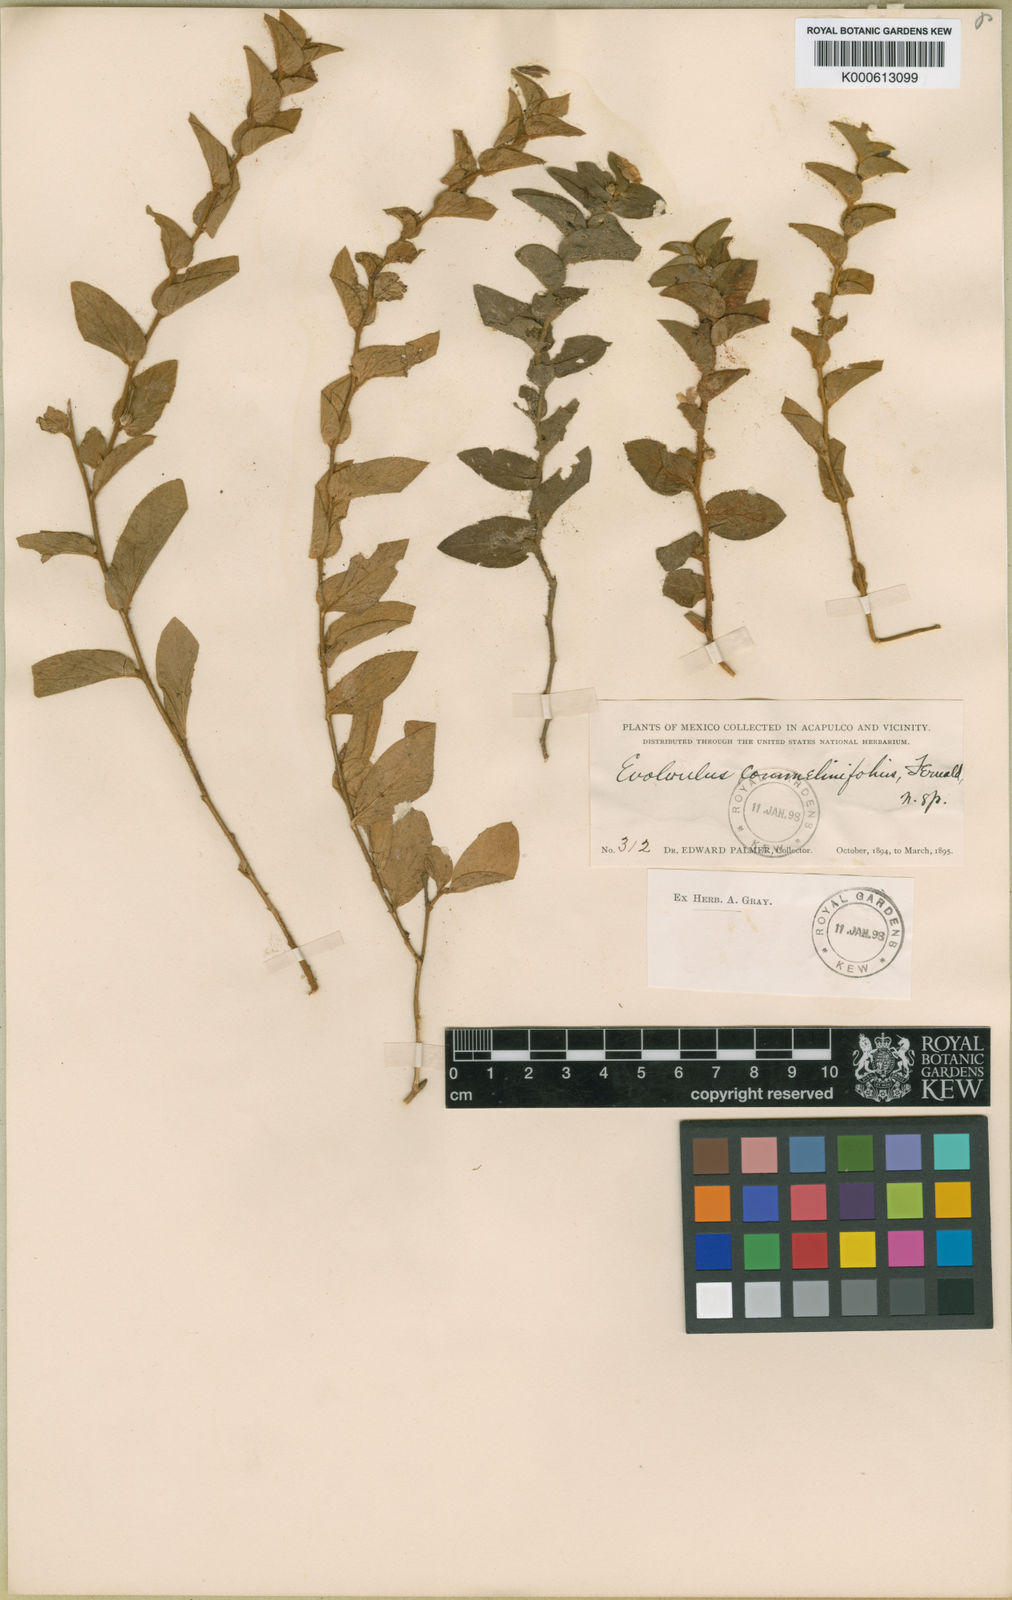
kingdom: Plantae
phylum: Tracheophyta
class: Magnoliopsida
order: Solanales
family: Convolvulaceae
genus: Evolvulus
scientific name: Evolvulus cardiophyllus
